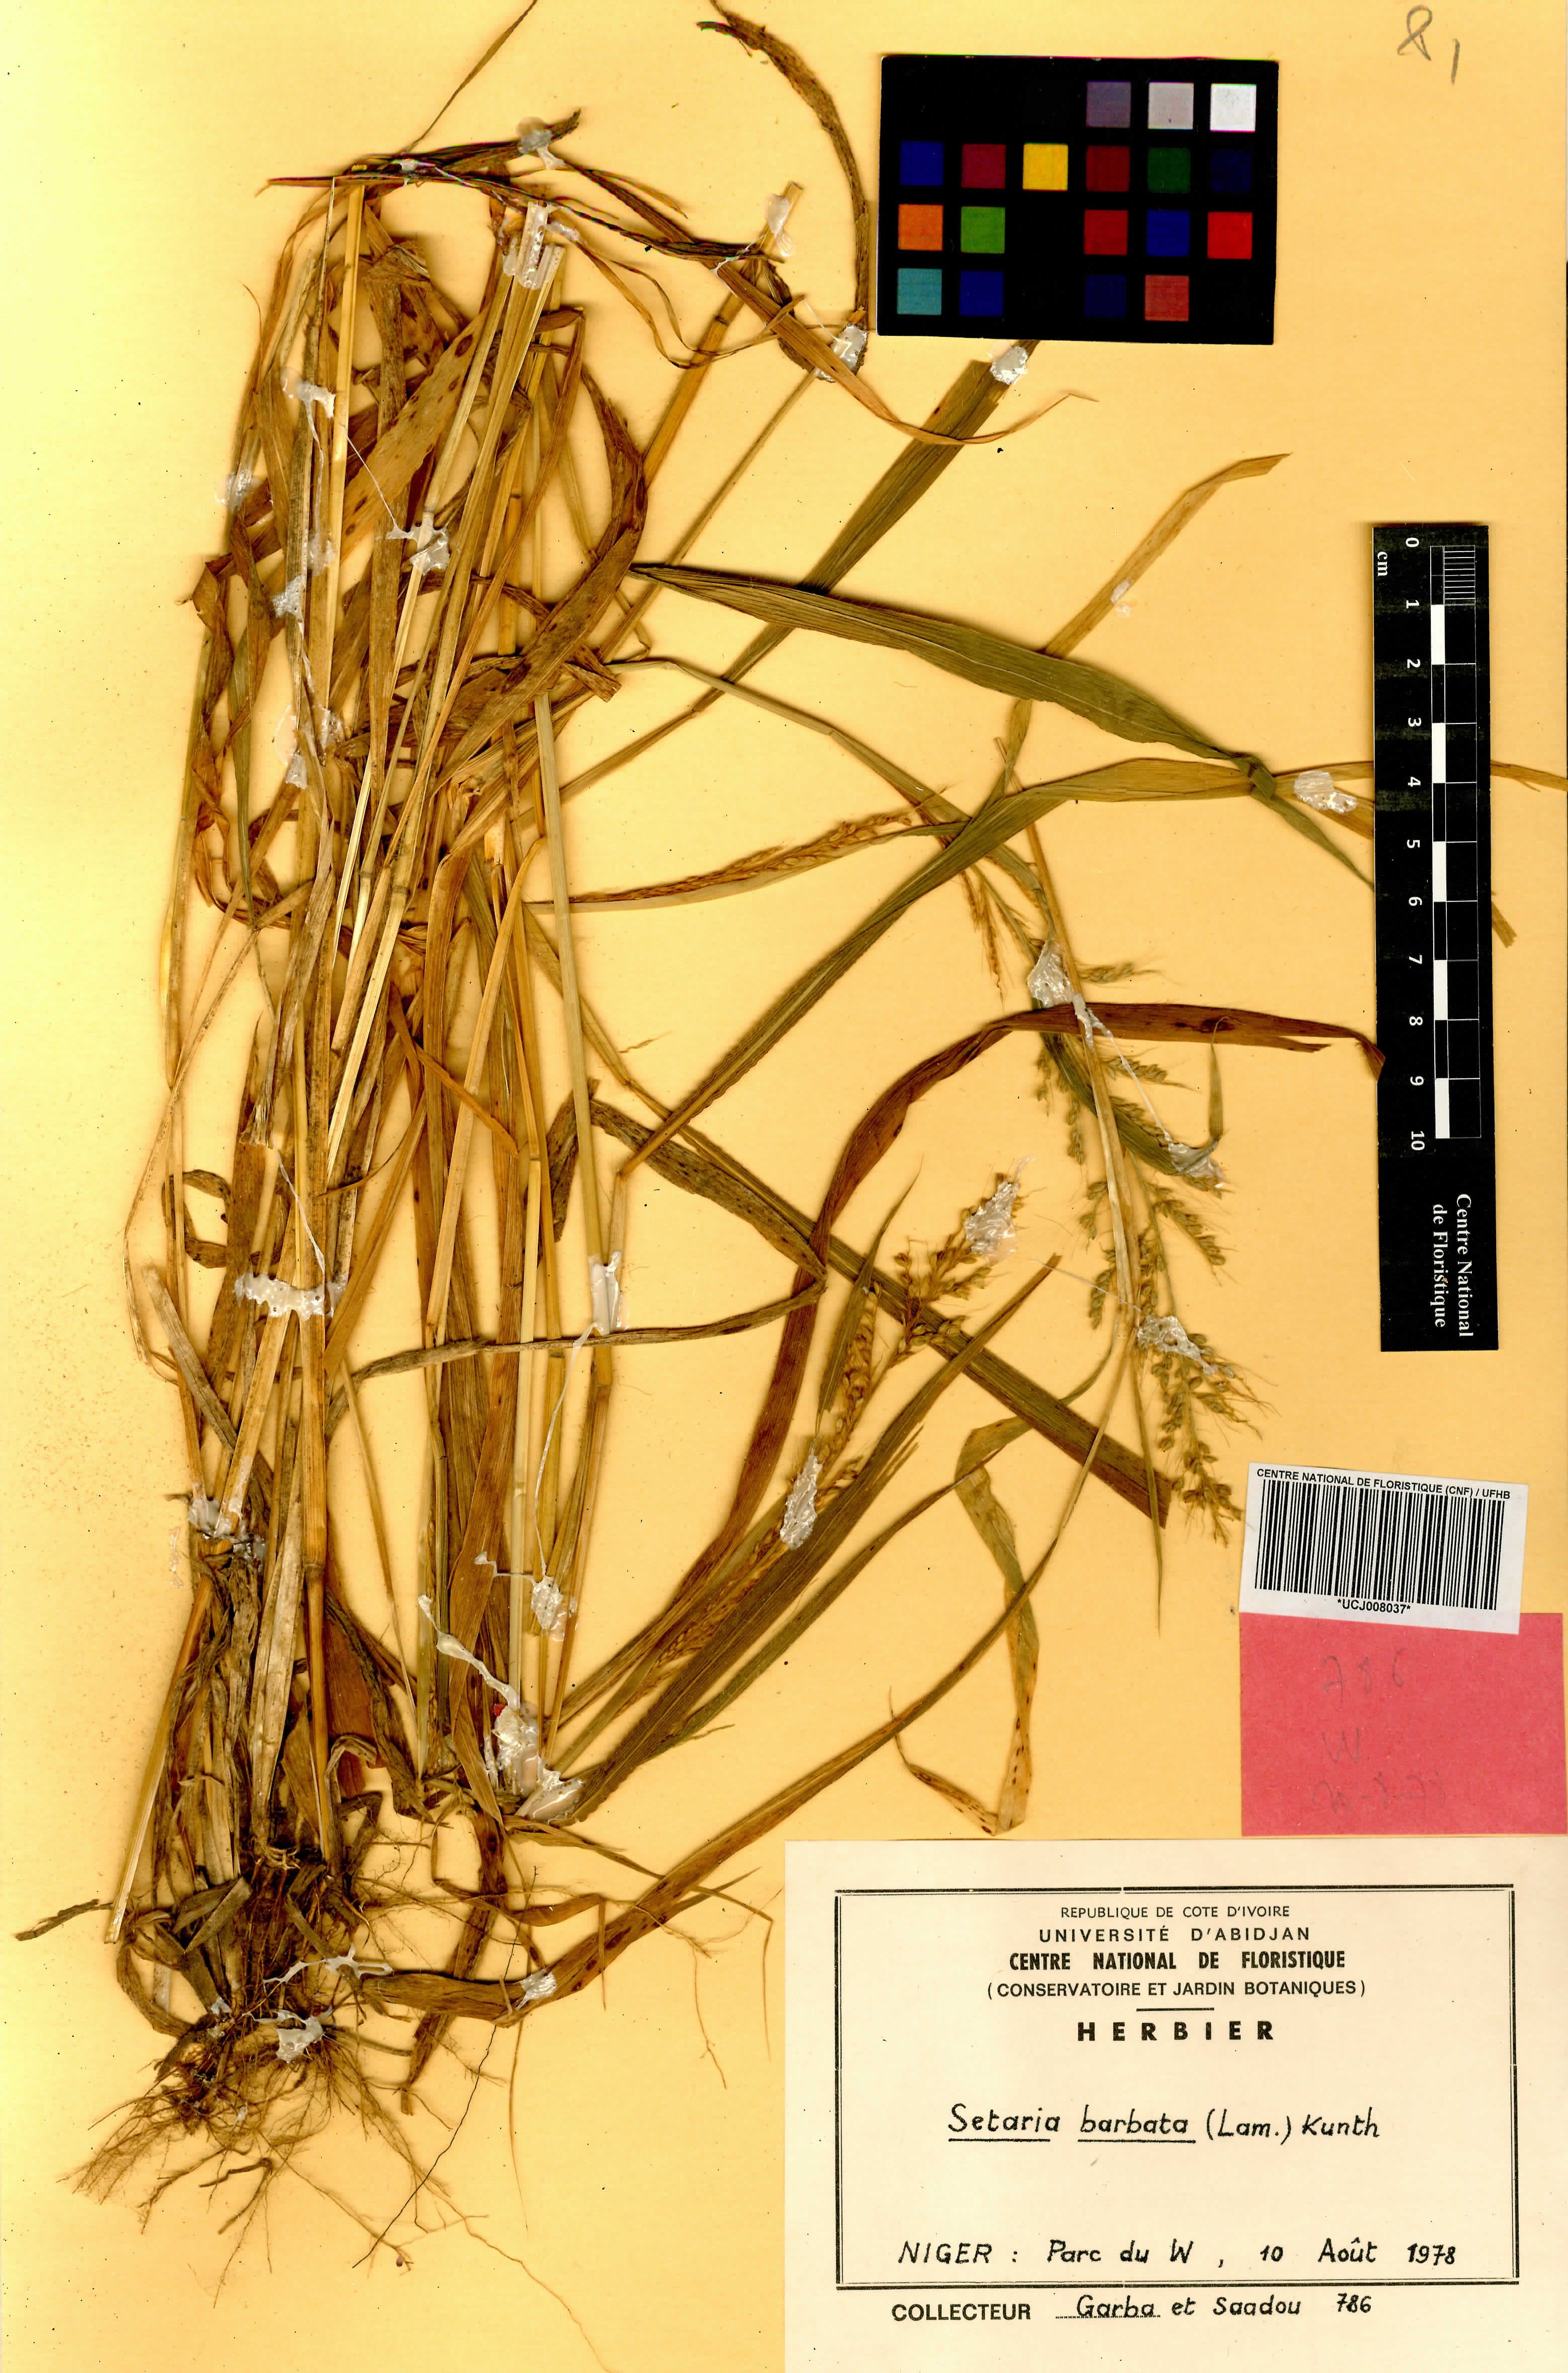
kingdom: Plantae
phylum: Tracheophyta
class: Liliopsida
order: Poales
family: Poaceae
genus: Setaria
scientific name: Setaria barbata
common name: East indian bristlegrass
